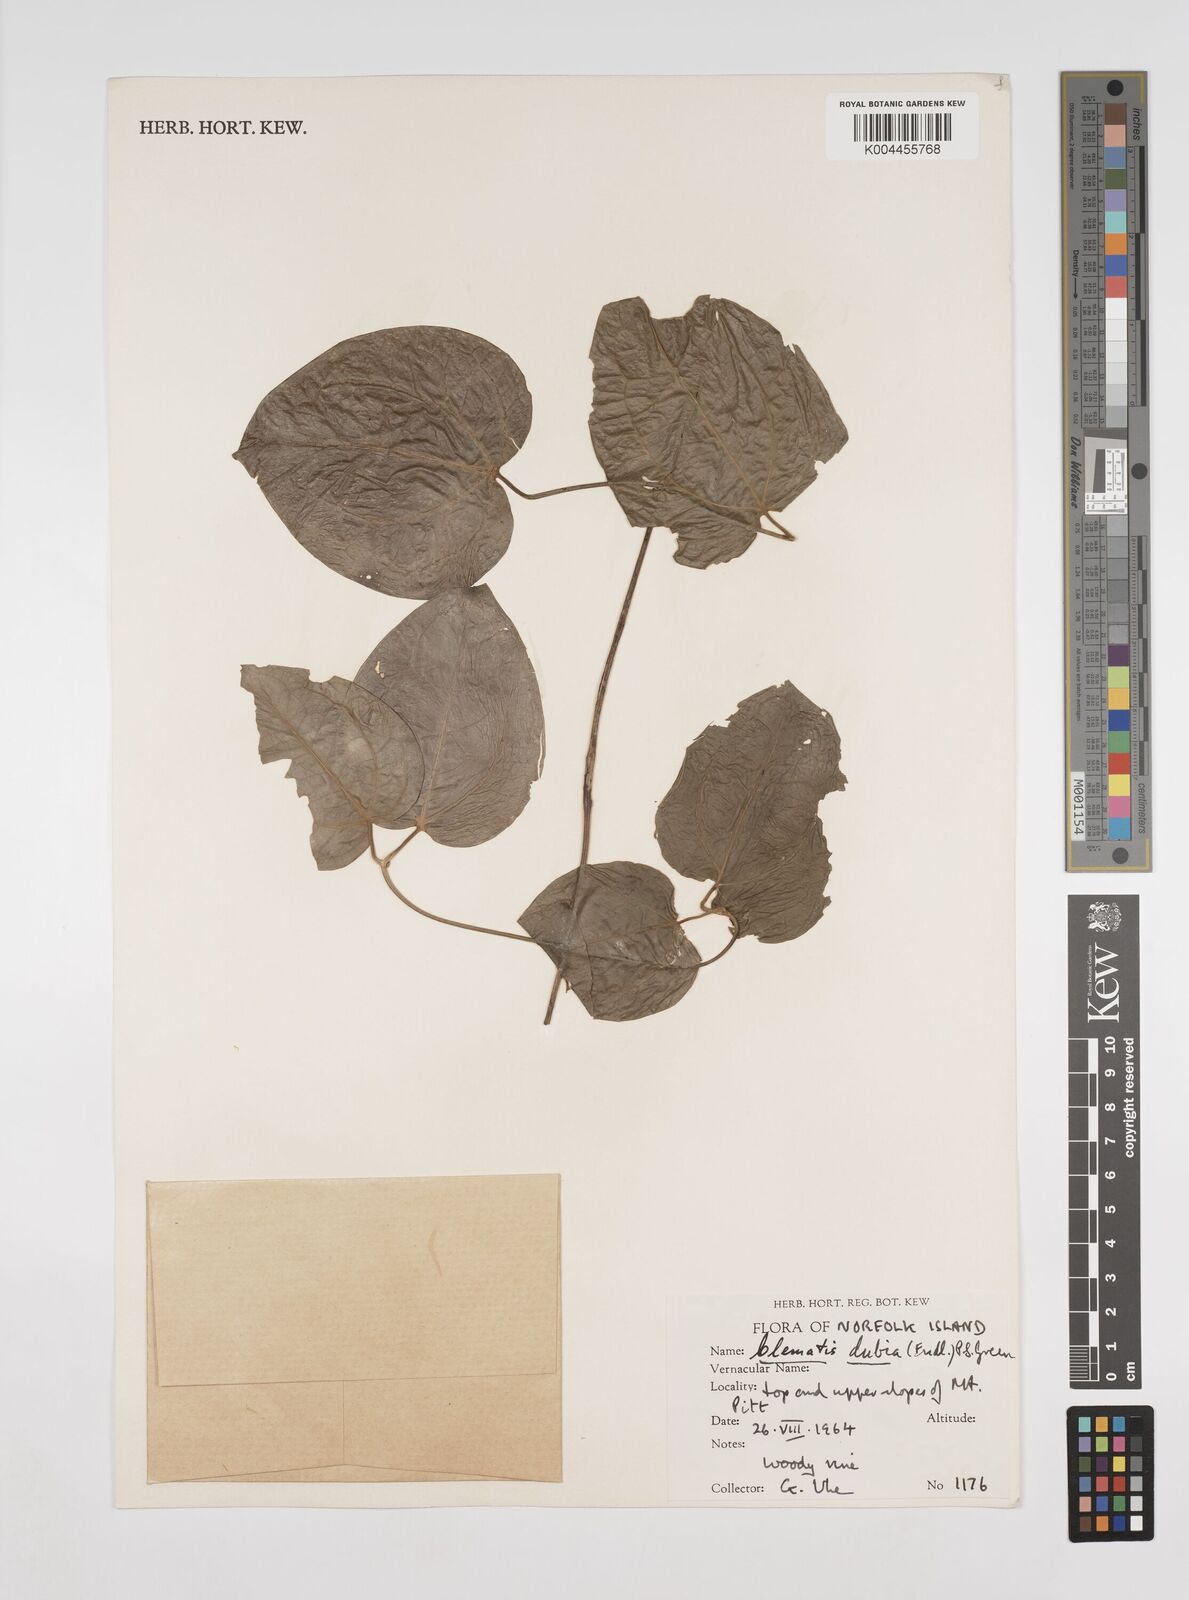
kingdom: Plantae
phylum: Tracheophyta
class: Magnoliopsida
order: Ranunculales
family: Ranunculaceae
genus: Clematis
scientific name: Clematis dubia
